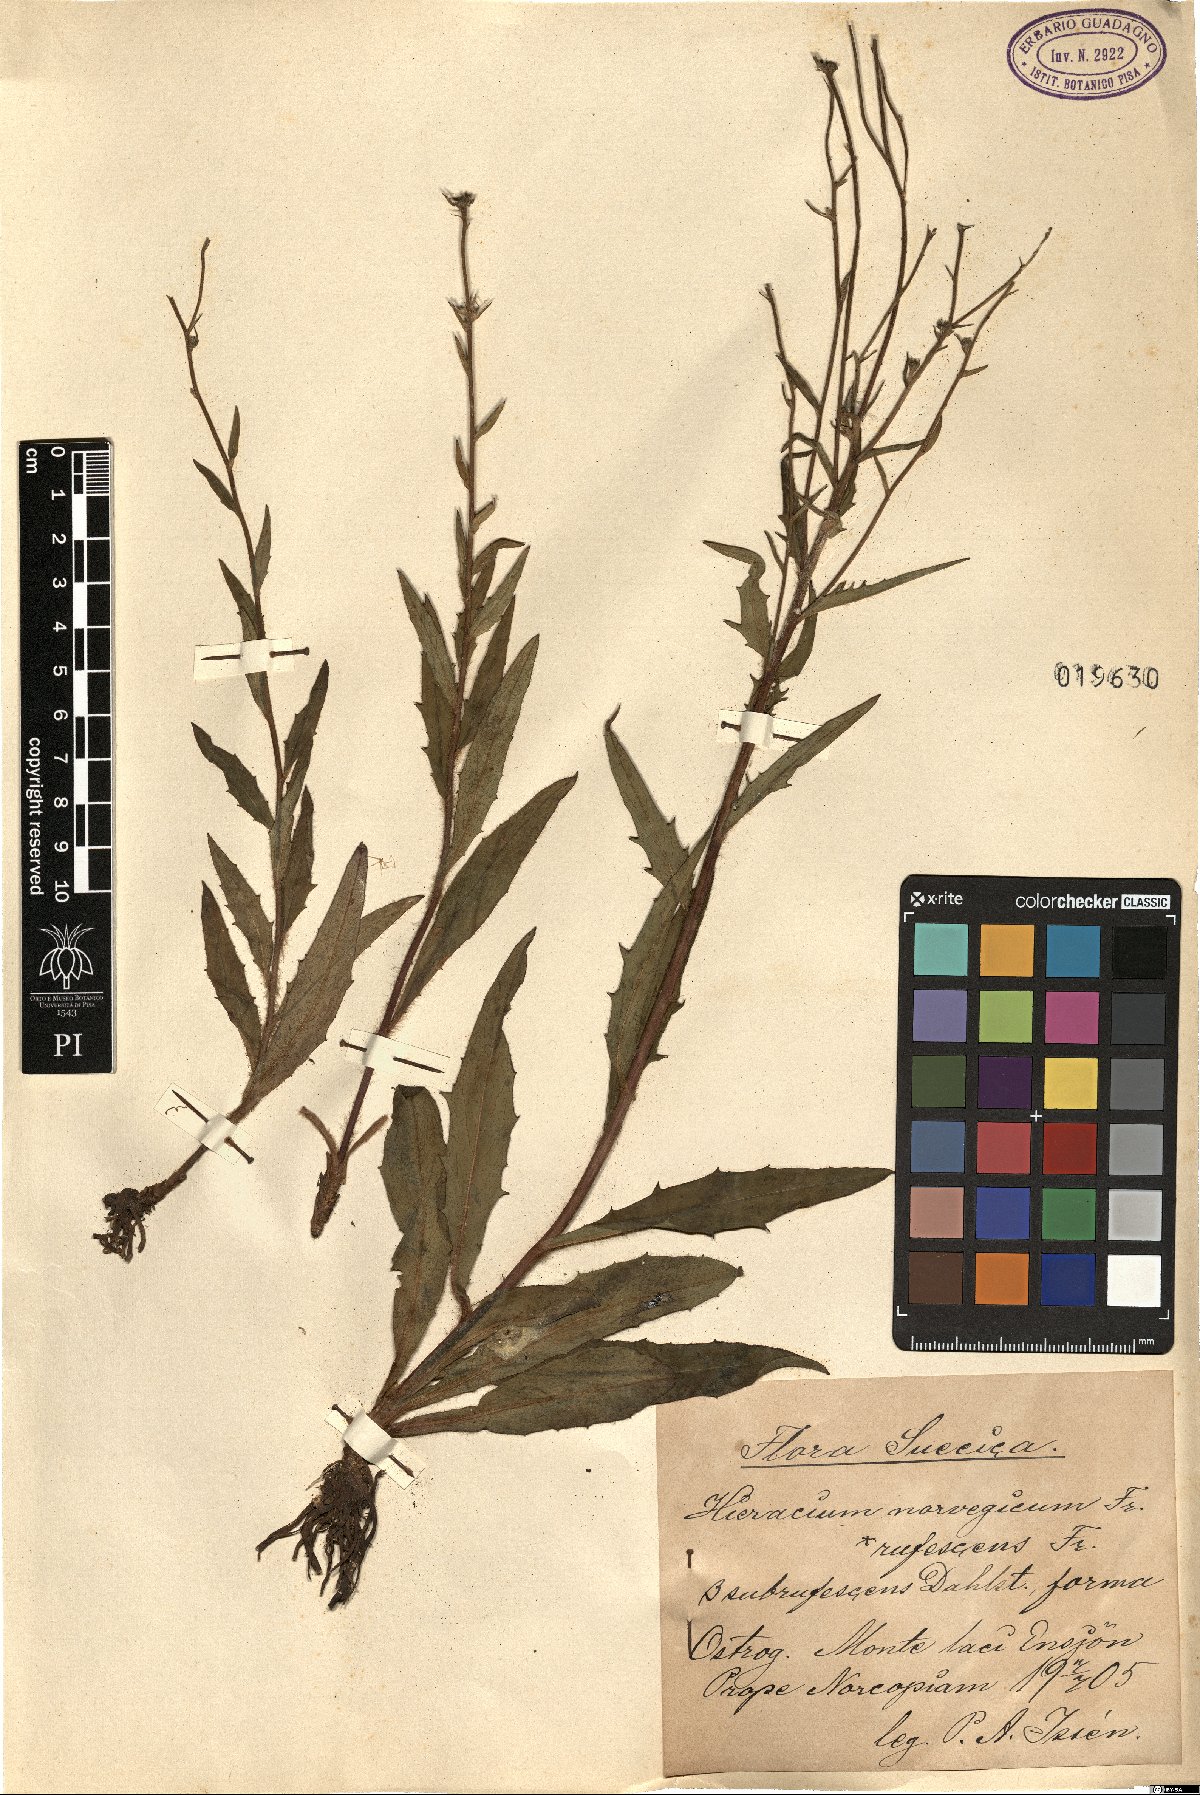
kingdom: Plantae
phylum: Tracheophyta
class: Magnoliopsida
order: Asterales
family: Asteraceae
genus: Hieracium
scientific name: Hieracium norvegicum
